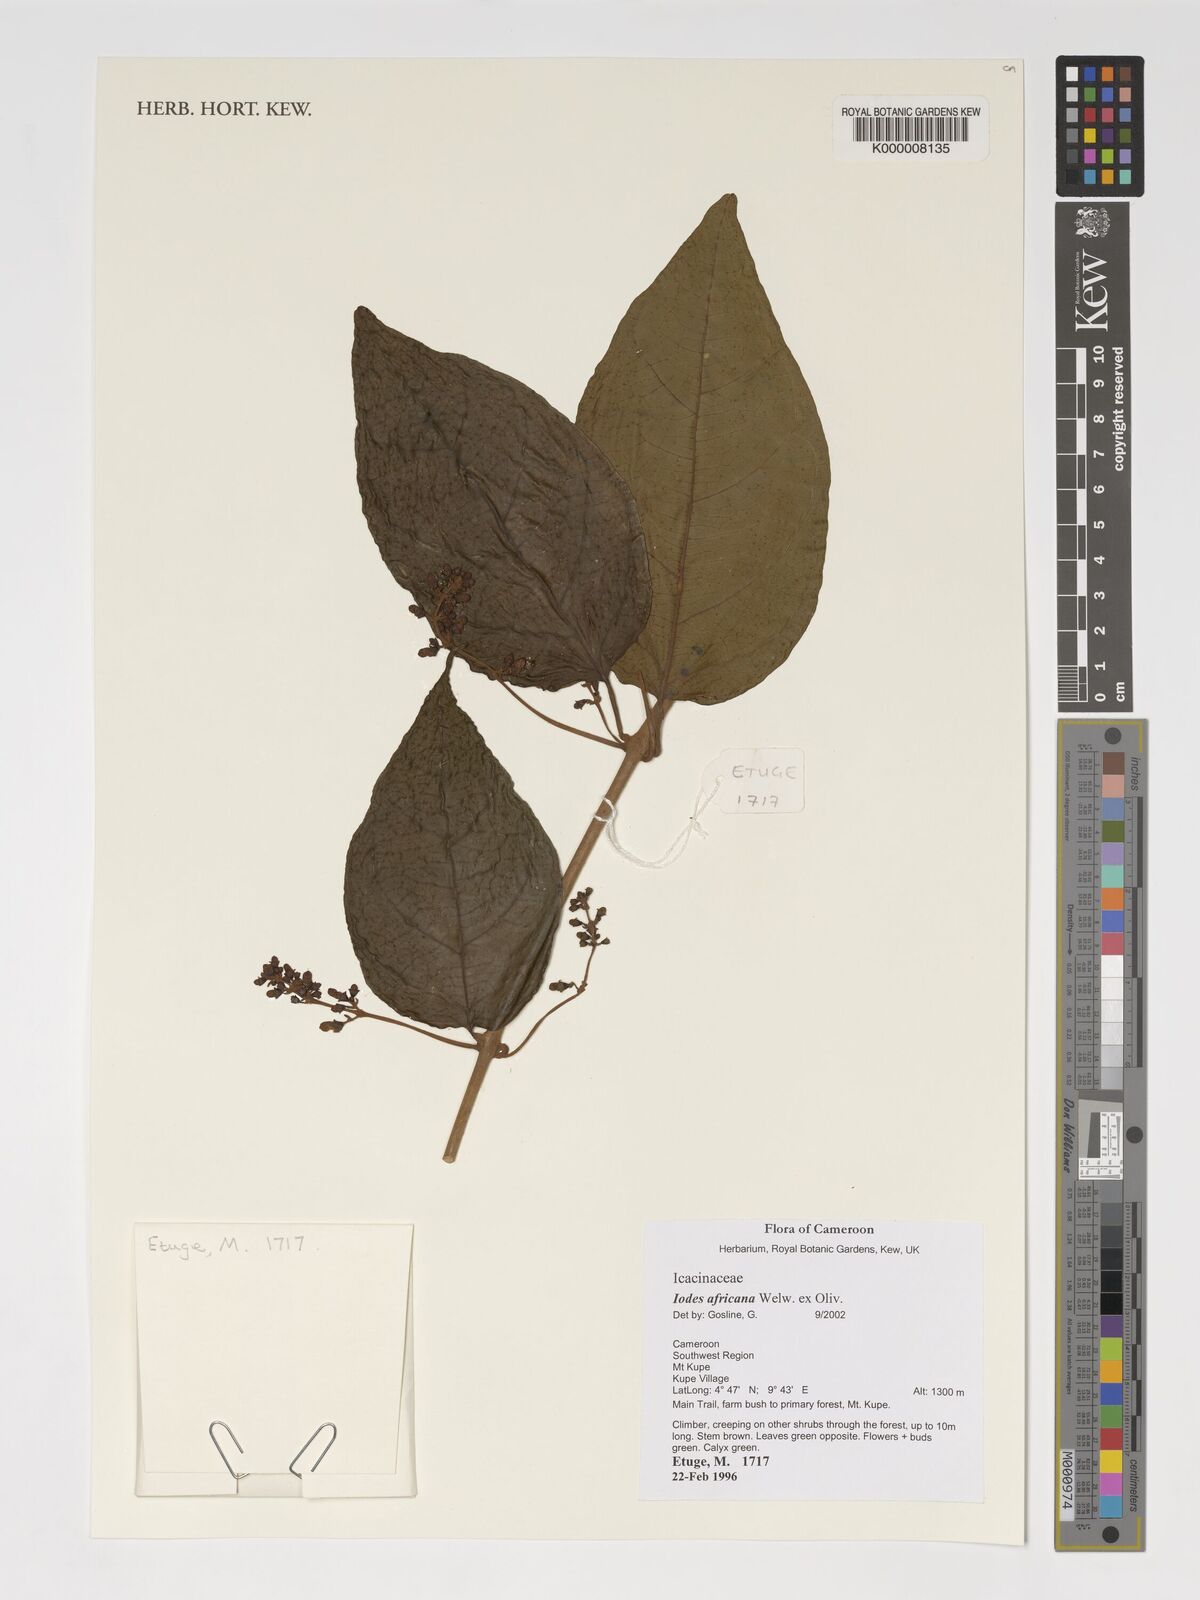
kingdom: Plantae
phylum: Tracheophyta
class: Magnoliopsida
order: Icacinales
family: Icacinaceae
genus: Iodes
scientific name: Iodes africana
